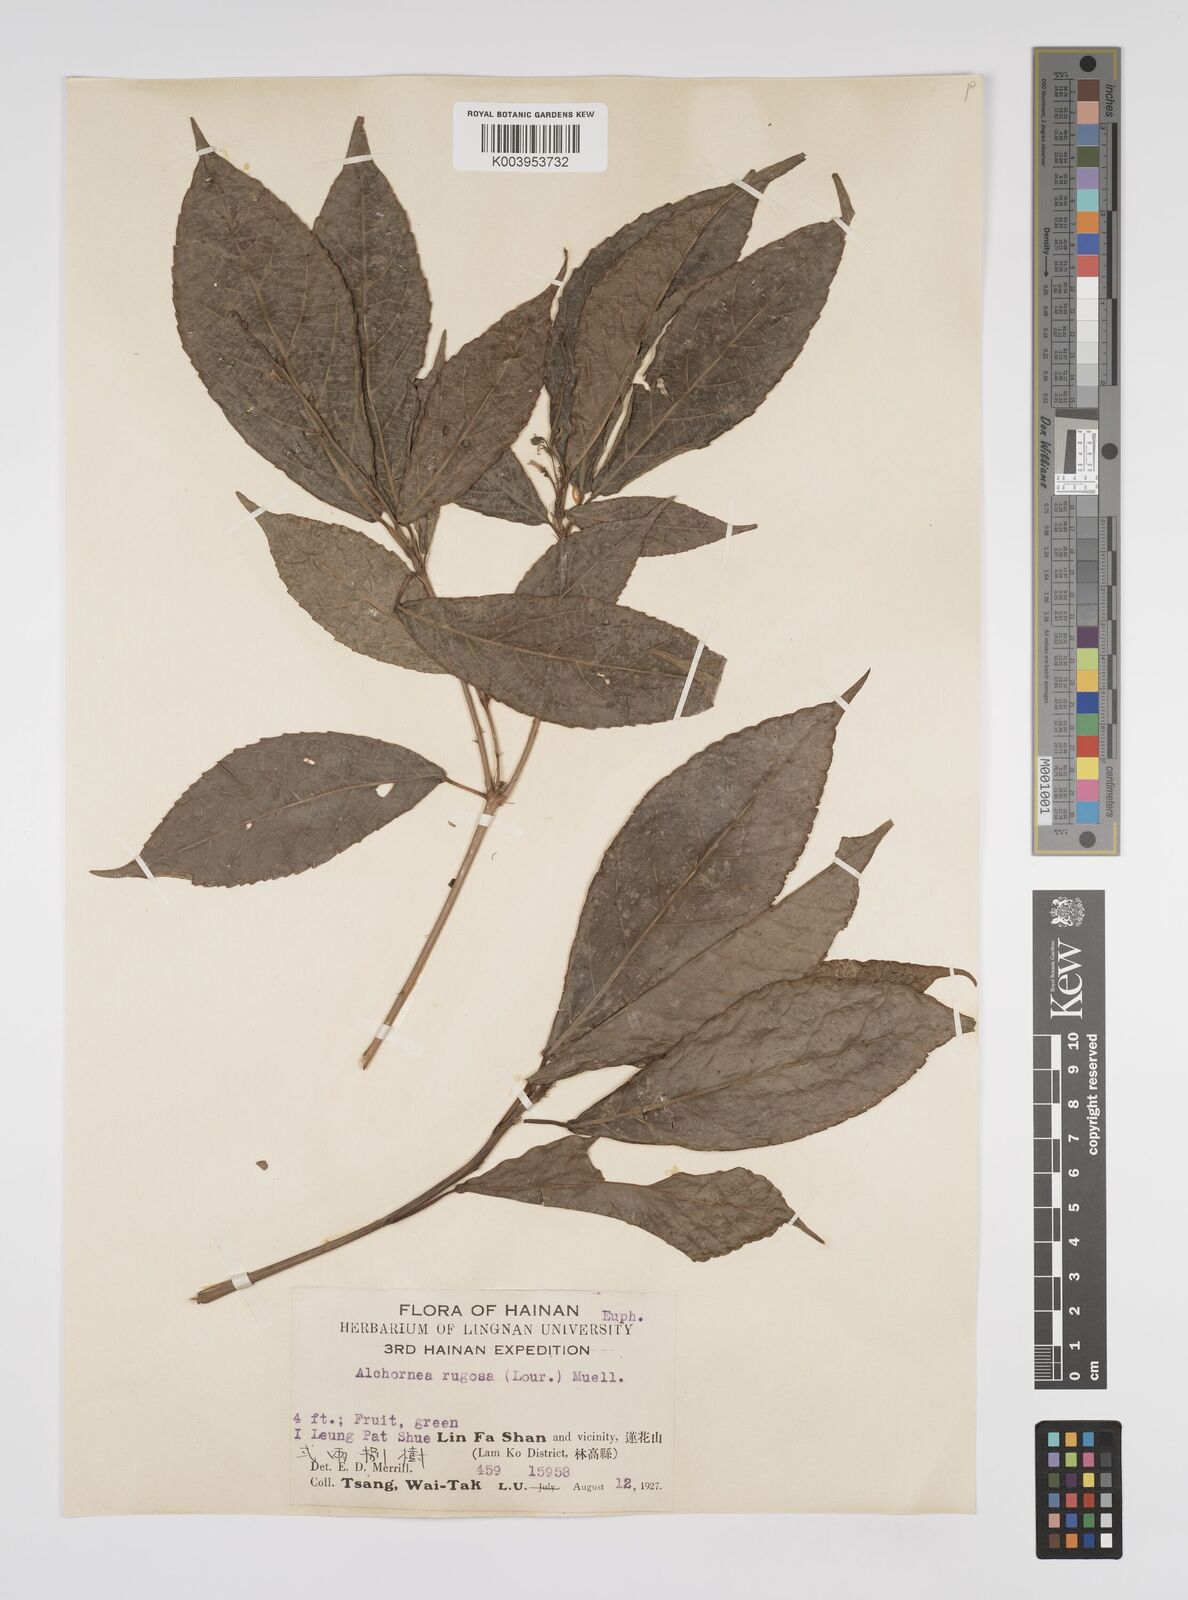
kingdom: Plantae
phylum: Tracheophyta
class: Magnoliopsida
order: Malpighiales
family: Euphorbiaceae
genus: Alchornea
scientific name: Alchornea rugosa
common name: Alchorntree
